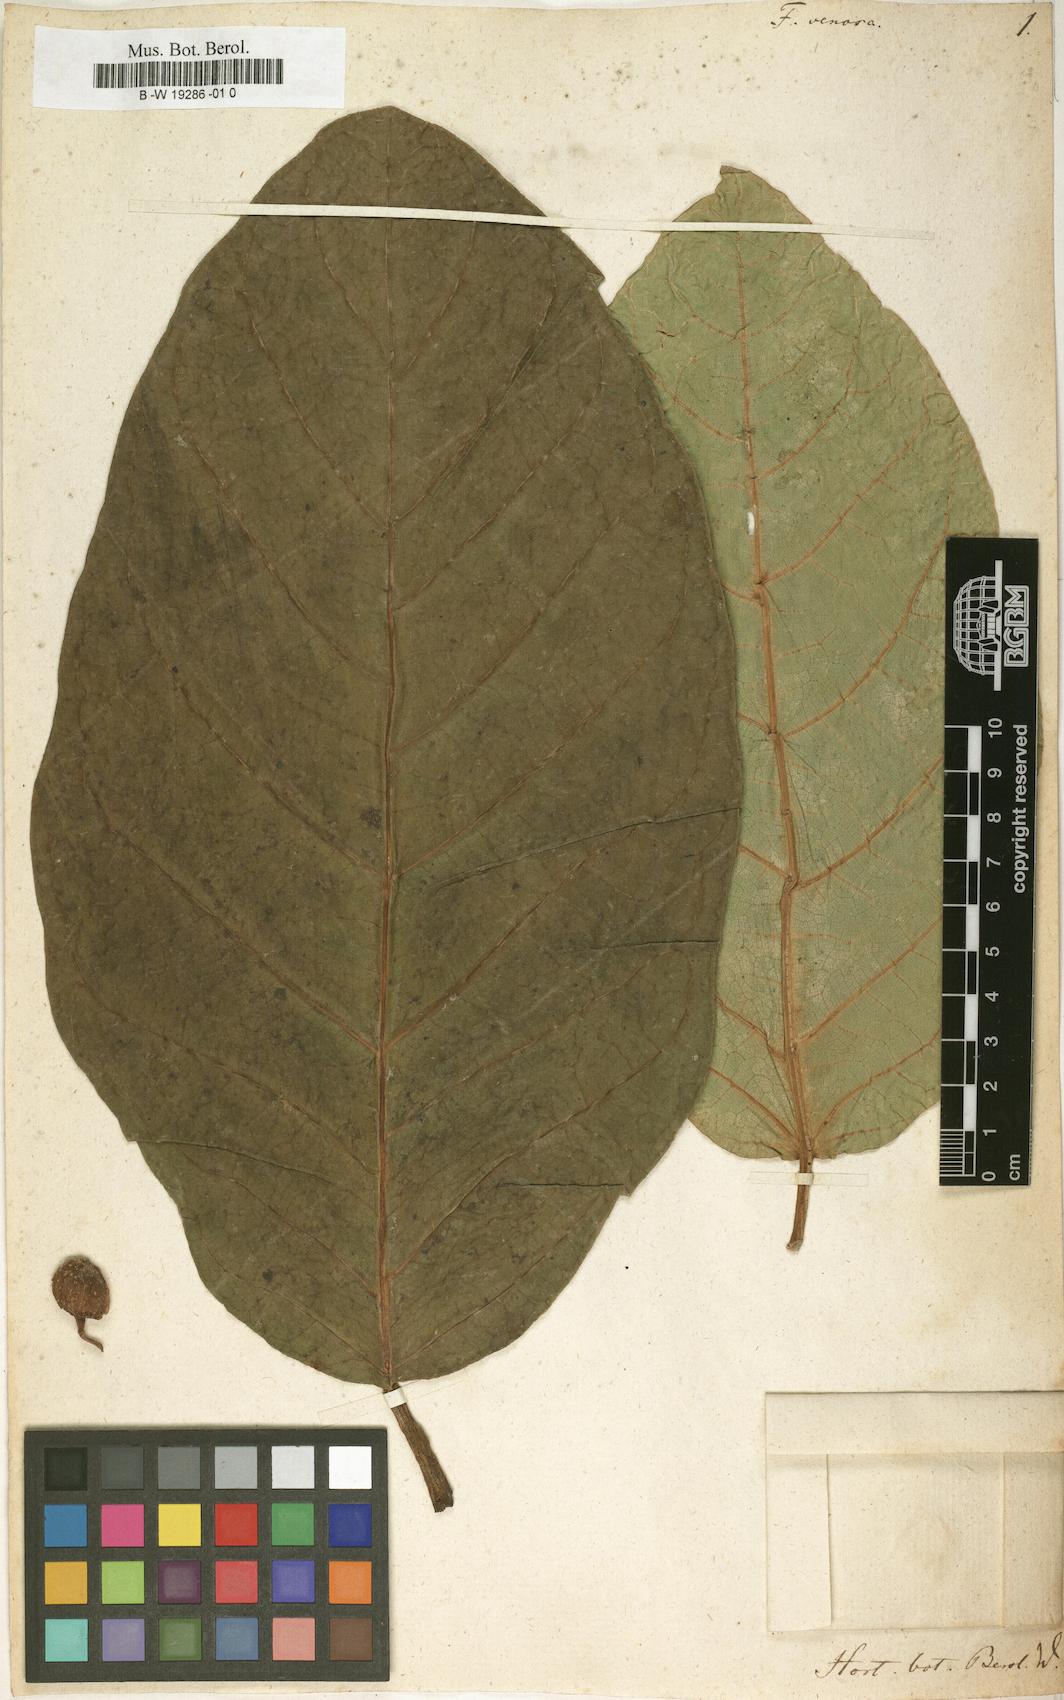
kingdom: Plantae
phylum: Tracheophyta
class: Magnoliopsida
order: Rosales
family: Moraceae
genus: Ficus
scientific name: Ficus venosa
